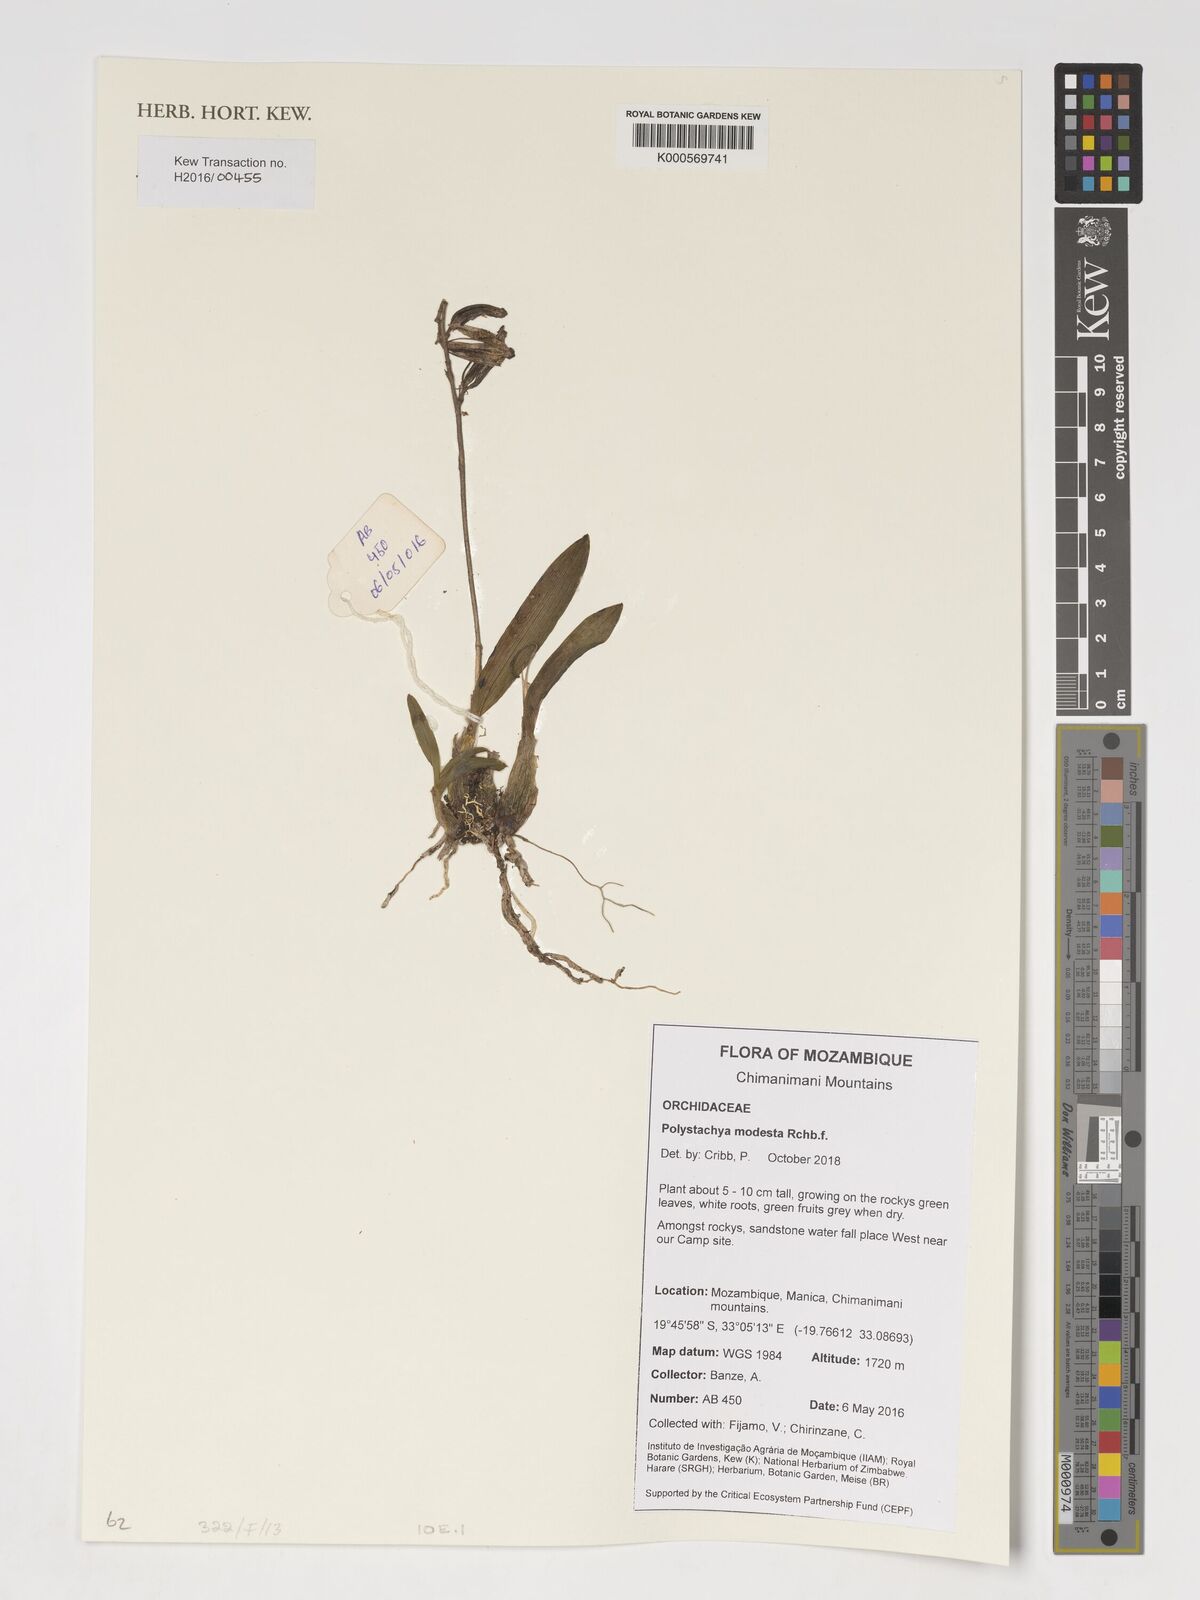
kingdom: Plantae
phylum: Tracheophyta
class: Liliopsida
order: Asparagales
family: Orchidaceae
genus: Polystachya
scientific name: Polystachya
